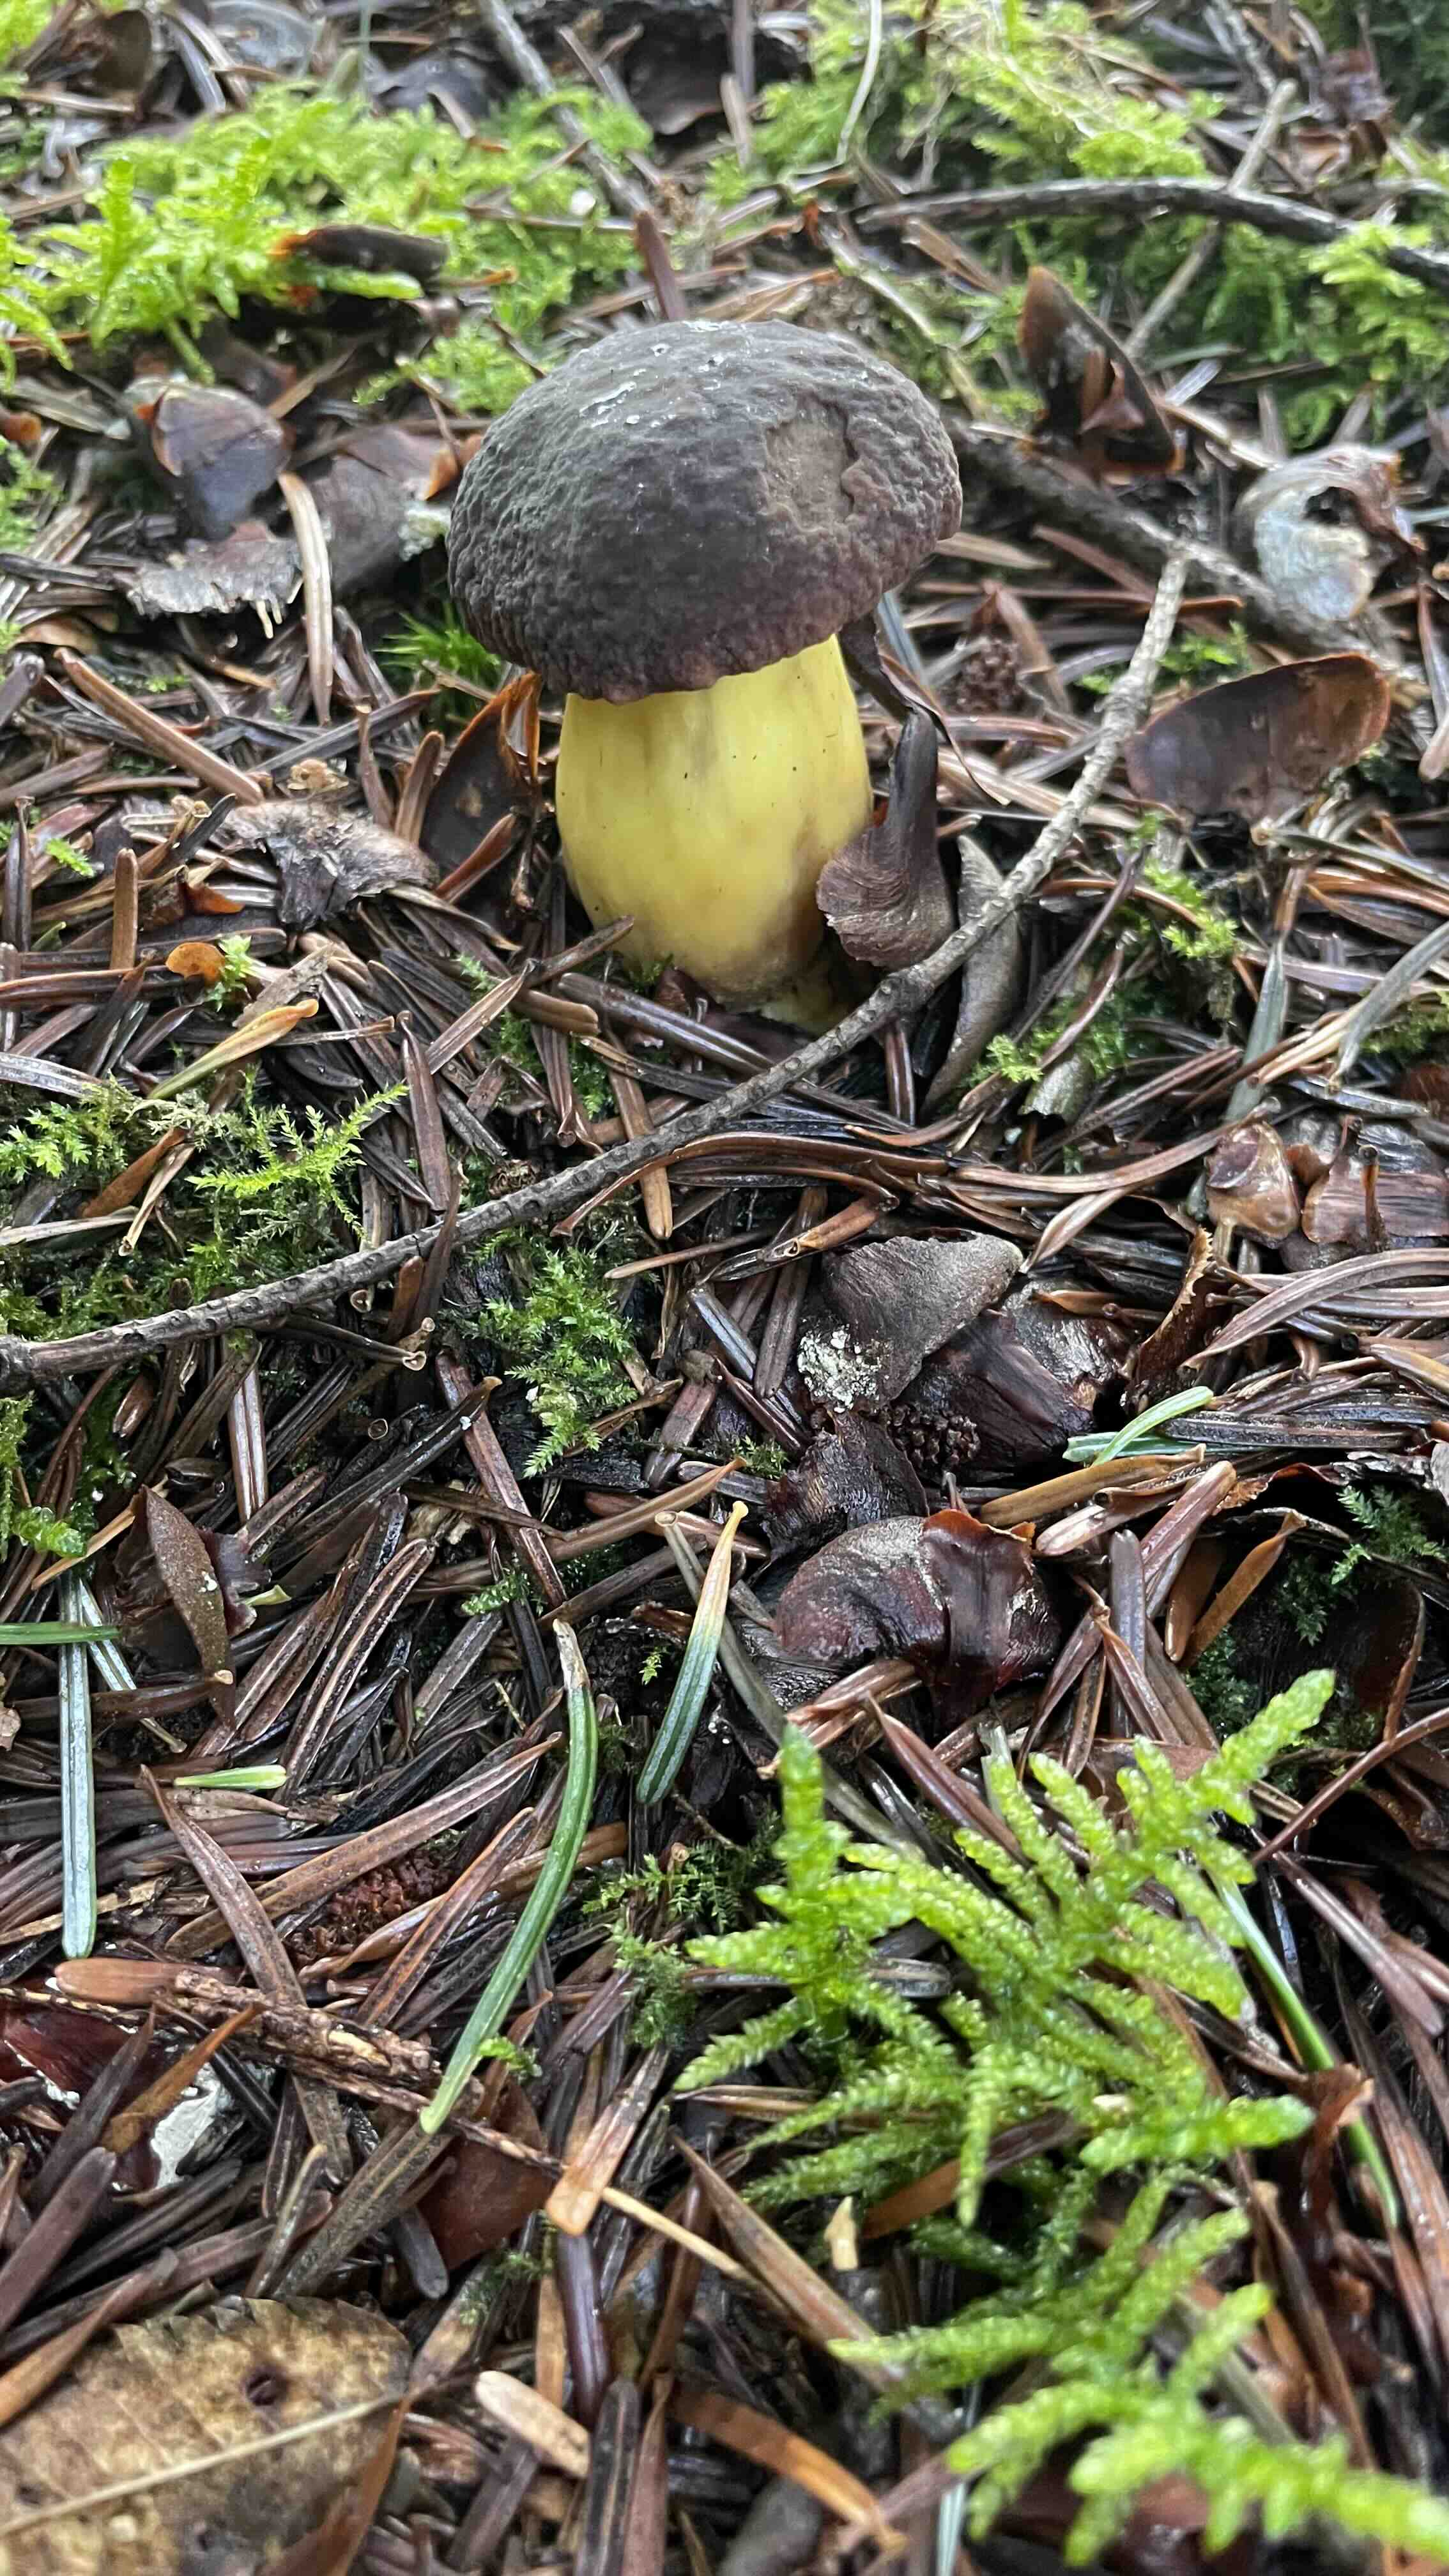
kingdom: Fungi
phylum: Basidiomycota
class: Agaricomycetes
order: Boletales
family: Boletaceae
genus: Xerocomellus
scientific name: Xerocomellus pruinatus
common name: dugget rørhat
